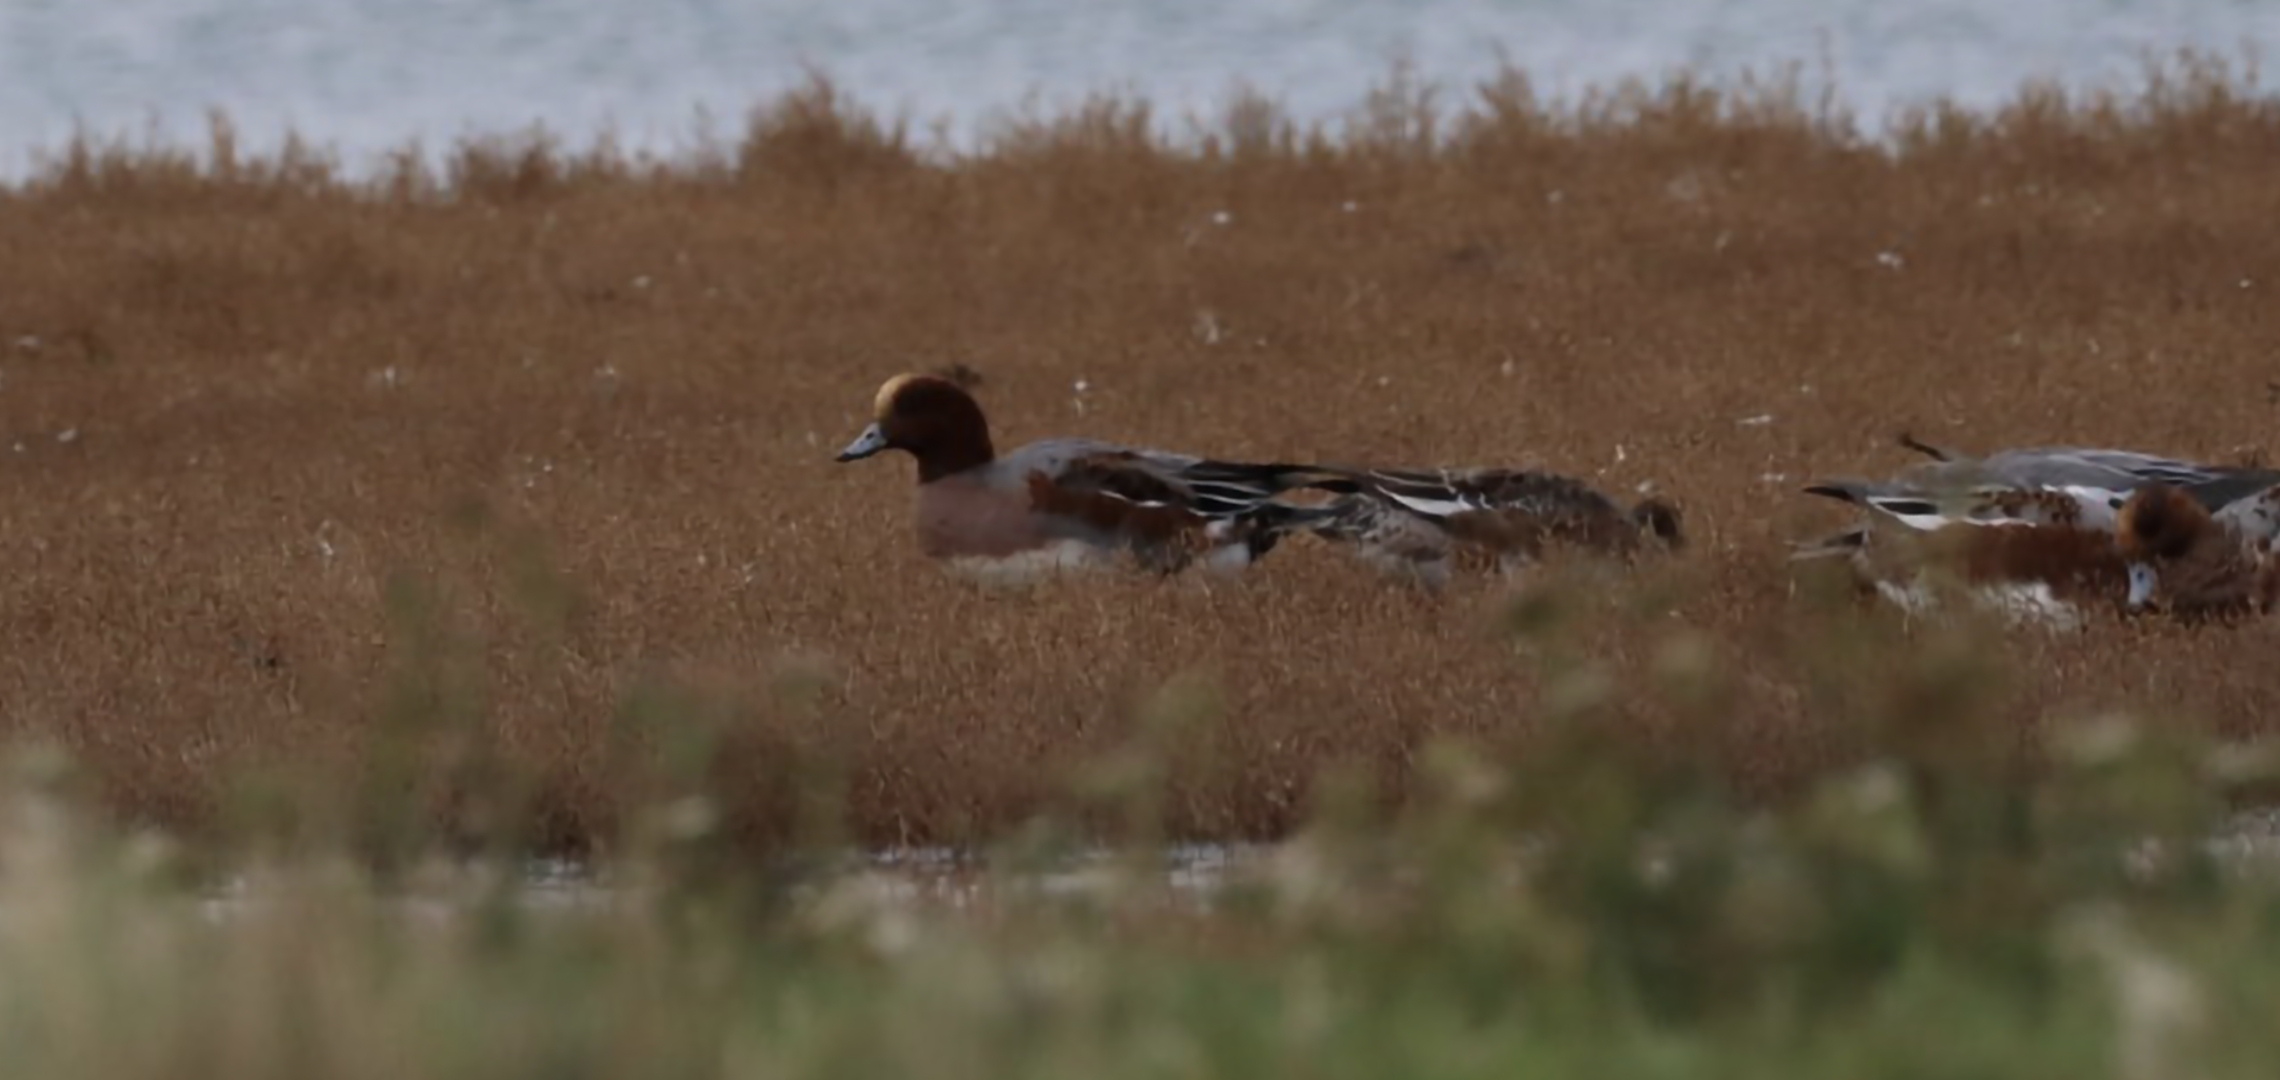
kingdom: Animalia
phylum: Chordata
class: Aves
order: Anseriformes
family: Anatidae
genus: Mareca
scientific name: Mareca penelope
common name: Pibeand
